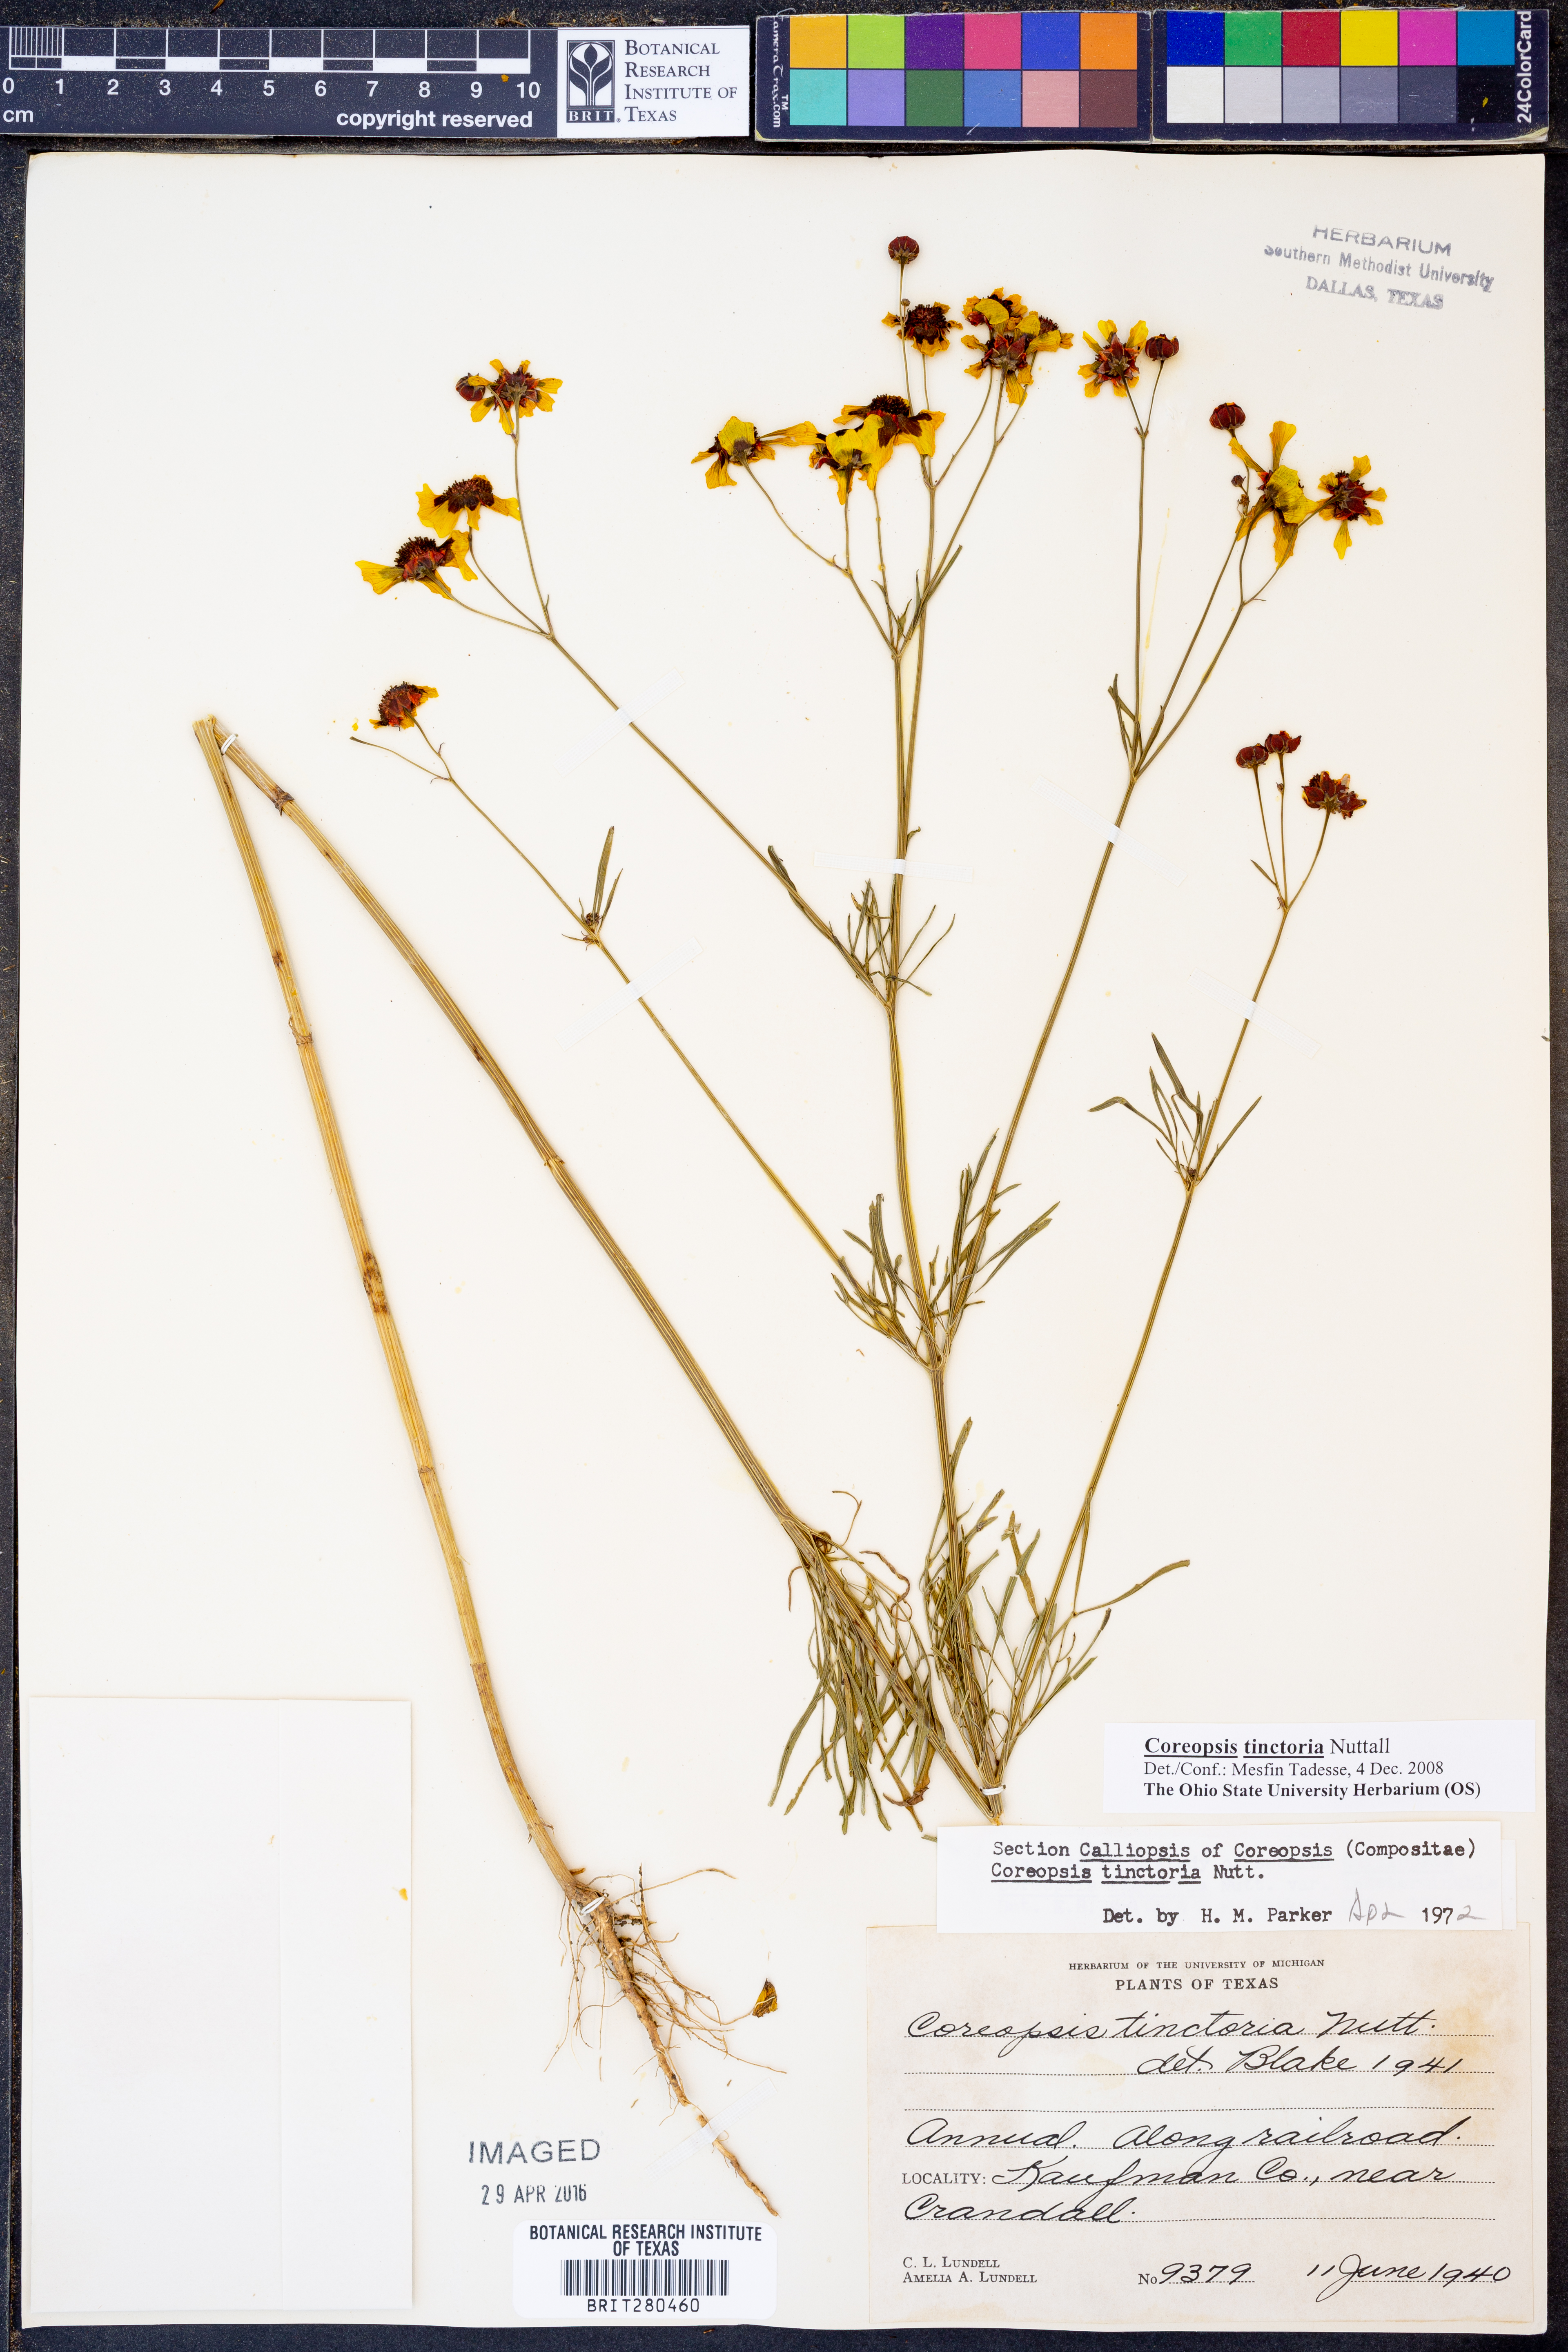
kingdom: Plantae
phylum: Tracheophyta
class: Magnoliopsida
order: Asterales
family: Asteraceae
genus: Coreopsis
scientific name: Coreopsis tinctoria
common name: Garden tickseed
